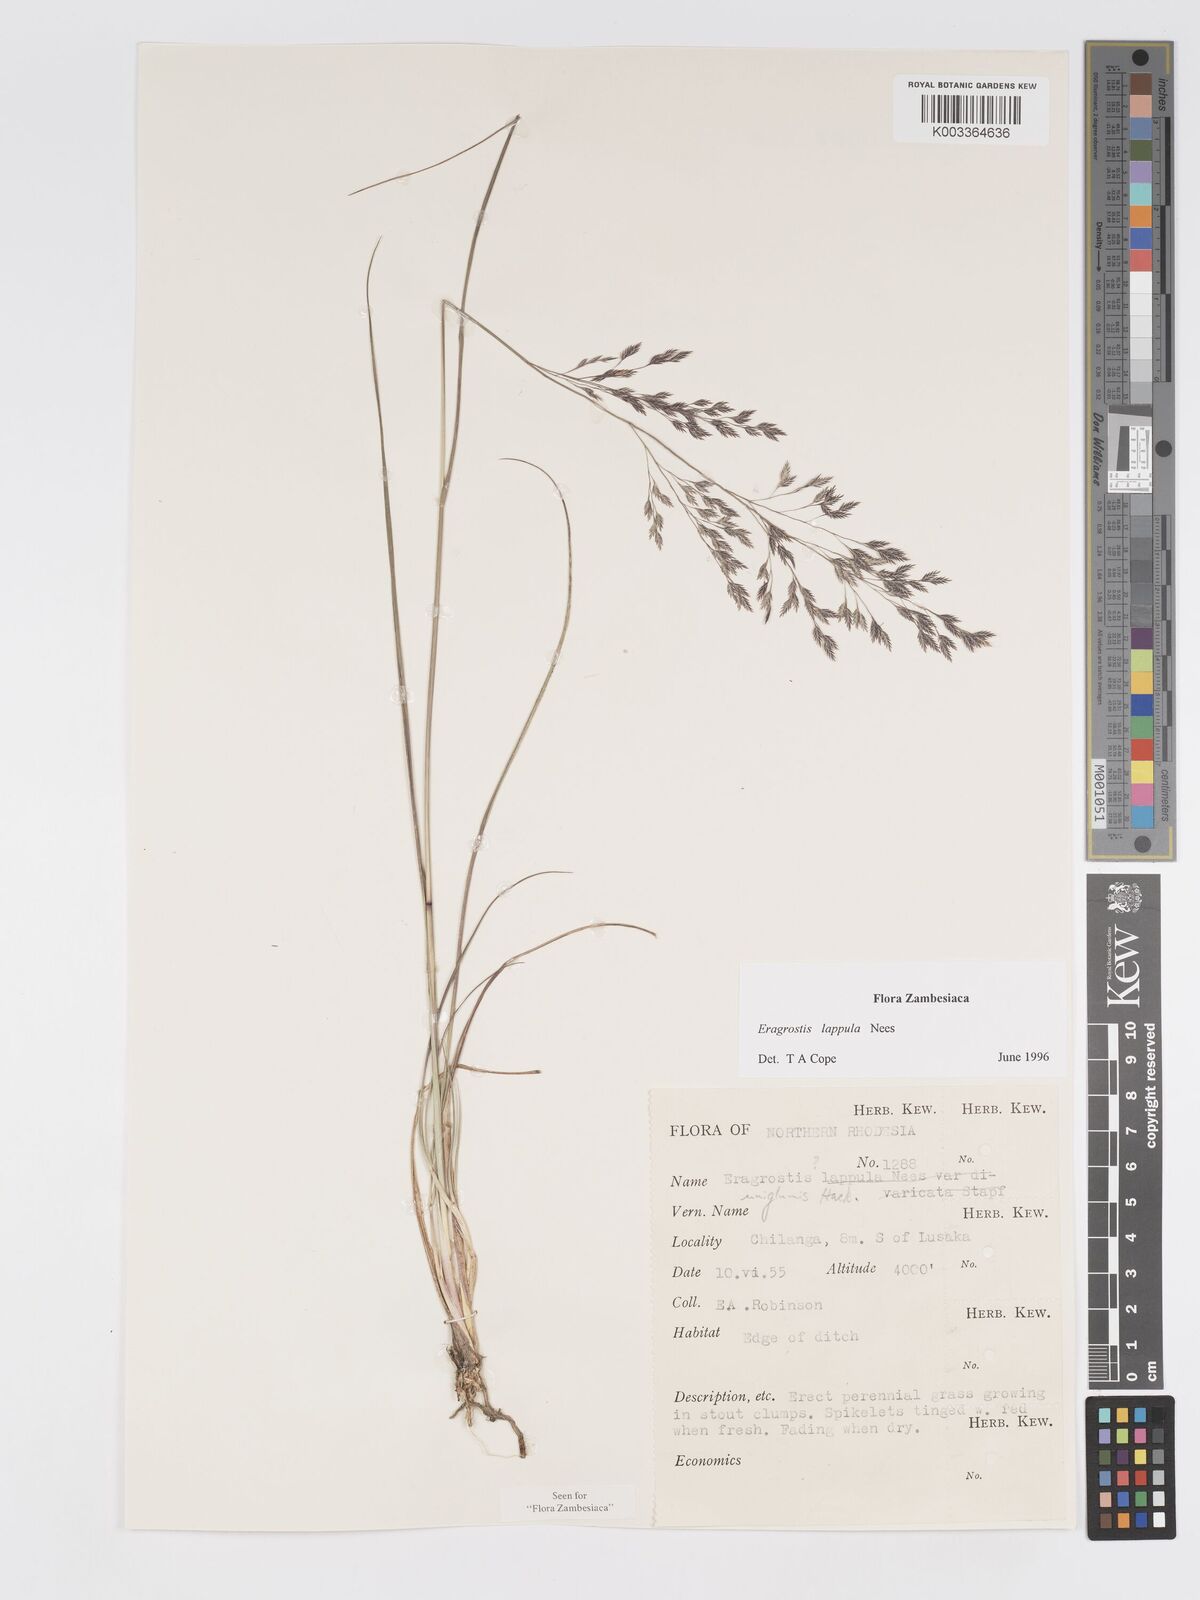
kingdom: Plantae
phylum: Tracheophyta
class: Liliopsida
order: Poales
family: Poaceae
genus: Eragrostis
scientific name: Eragrostis lappula
